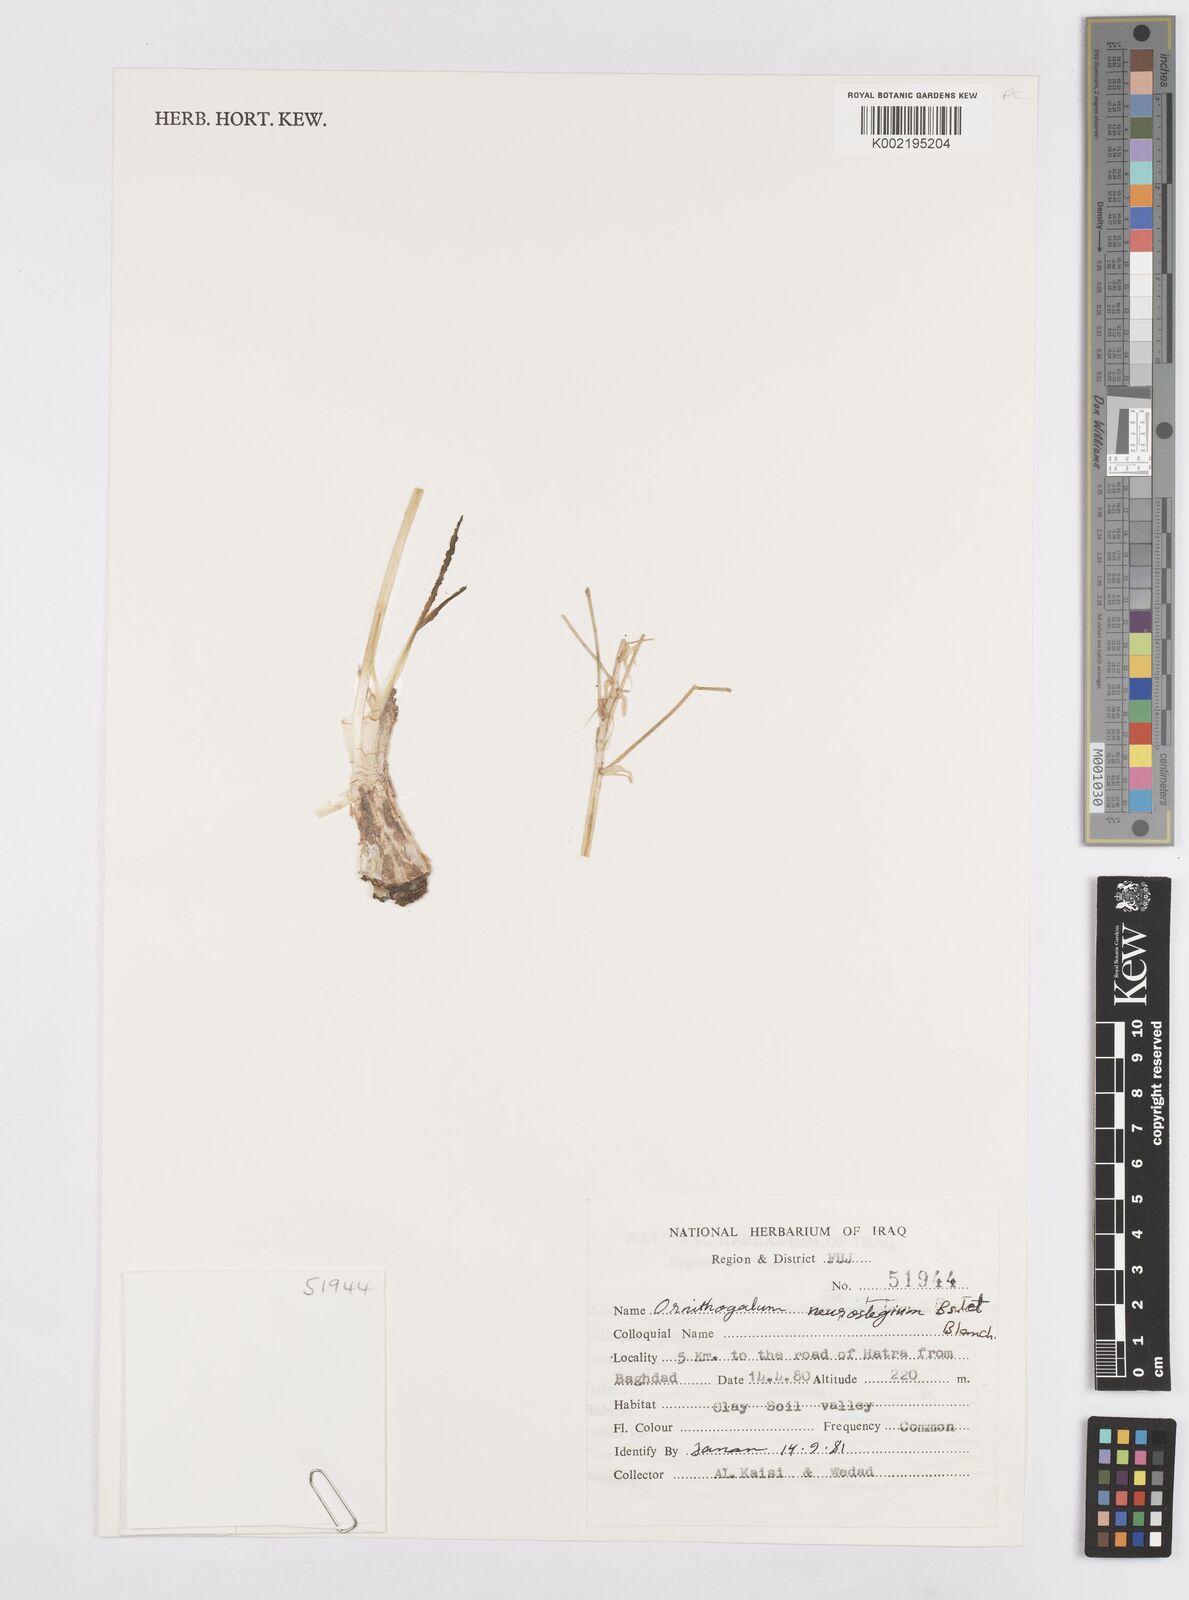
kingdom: Plantae
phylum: Tracheophyta
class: Liliopsida
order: Asparagales
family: Asparagaceae
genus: Ornithogalum
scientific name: Ornithogalum neurostegium
